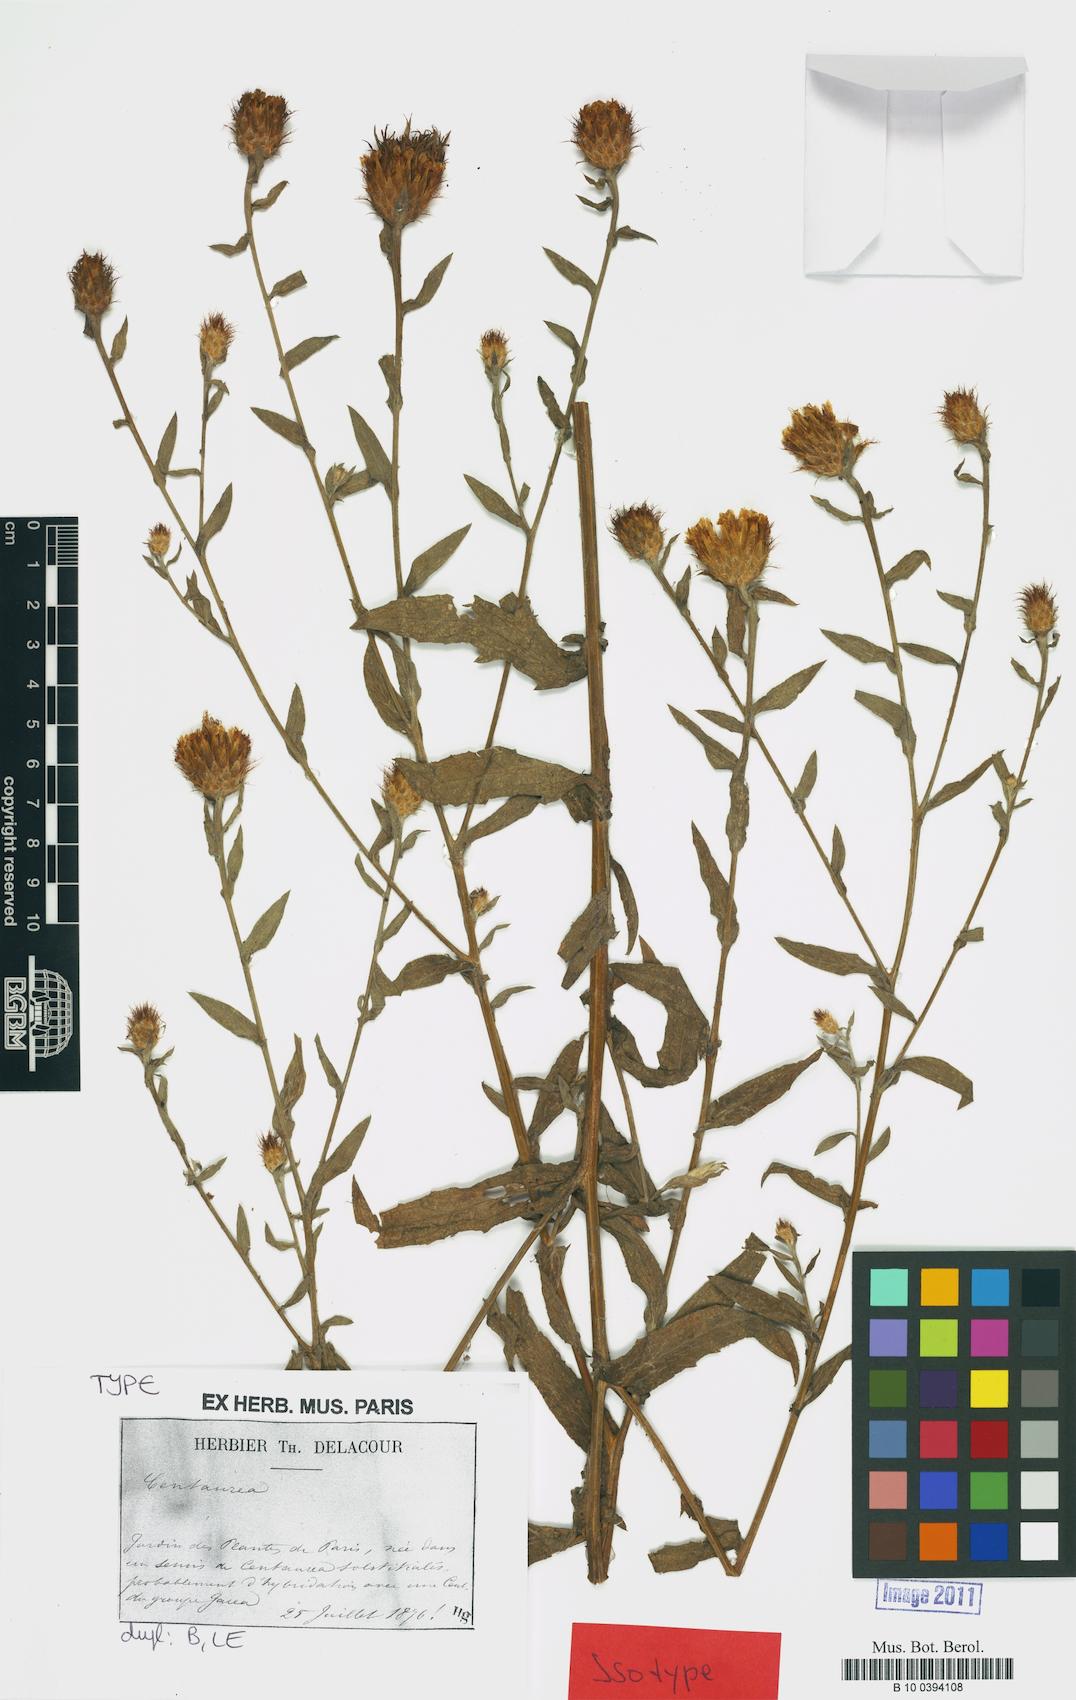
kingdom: Plantae
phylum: Tracheophyta
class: Magnoliopsida
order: Asterales
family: Asteraceae
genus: Centaurea
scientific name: Centaurea
